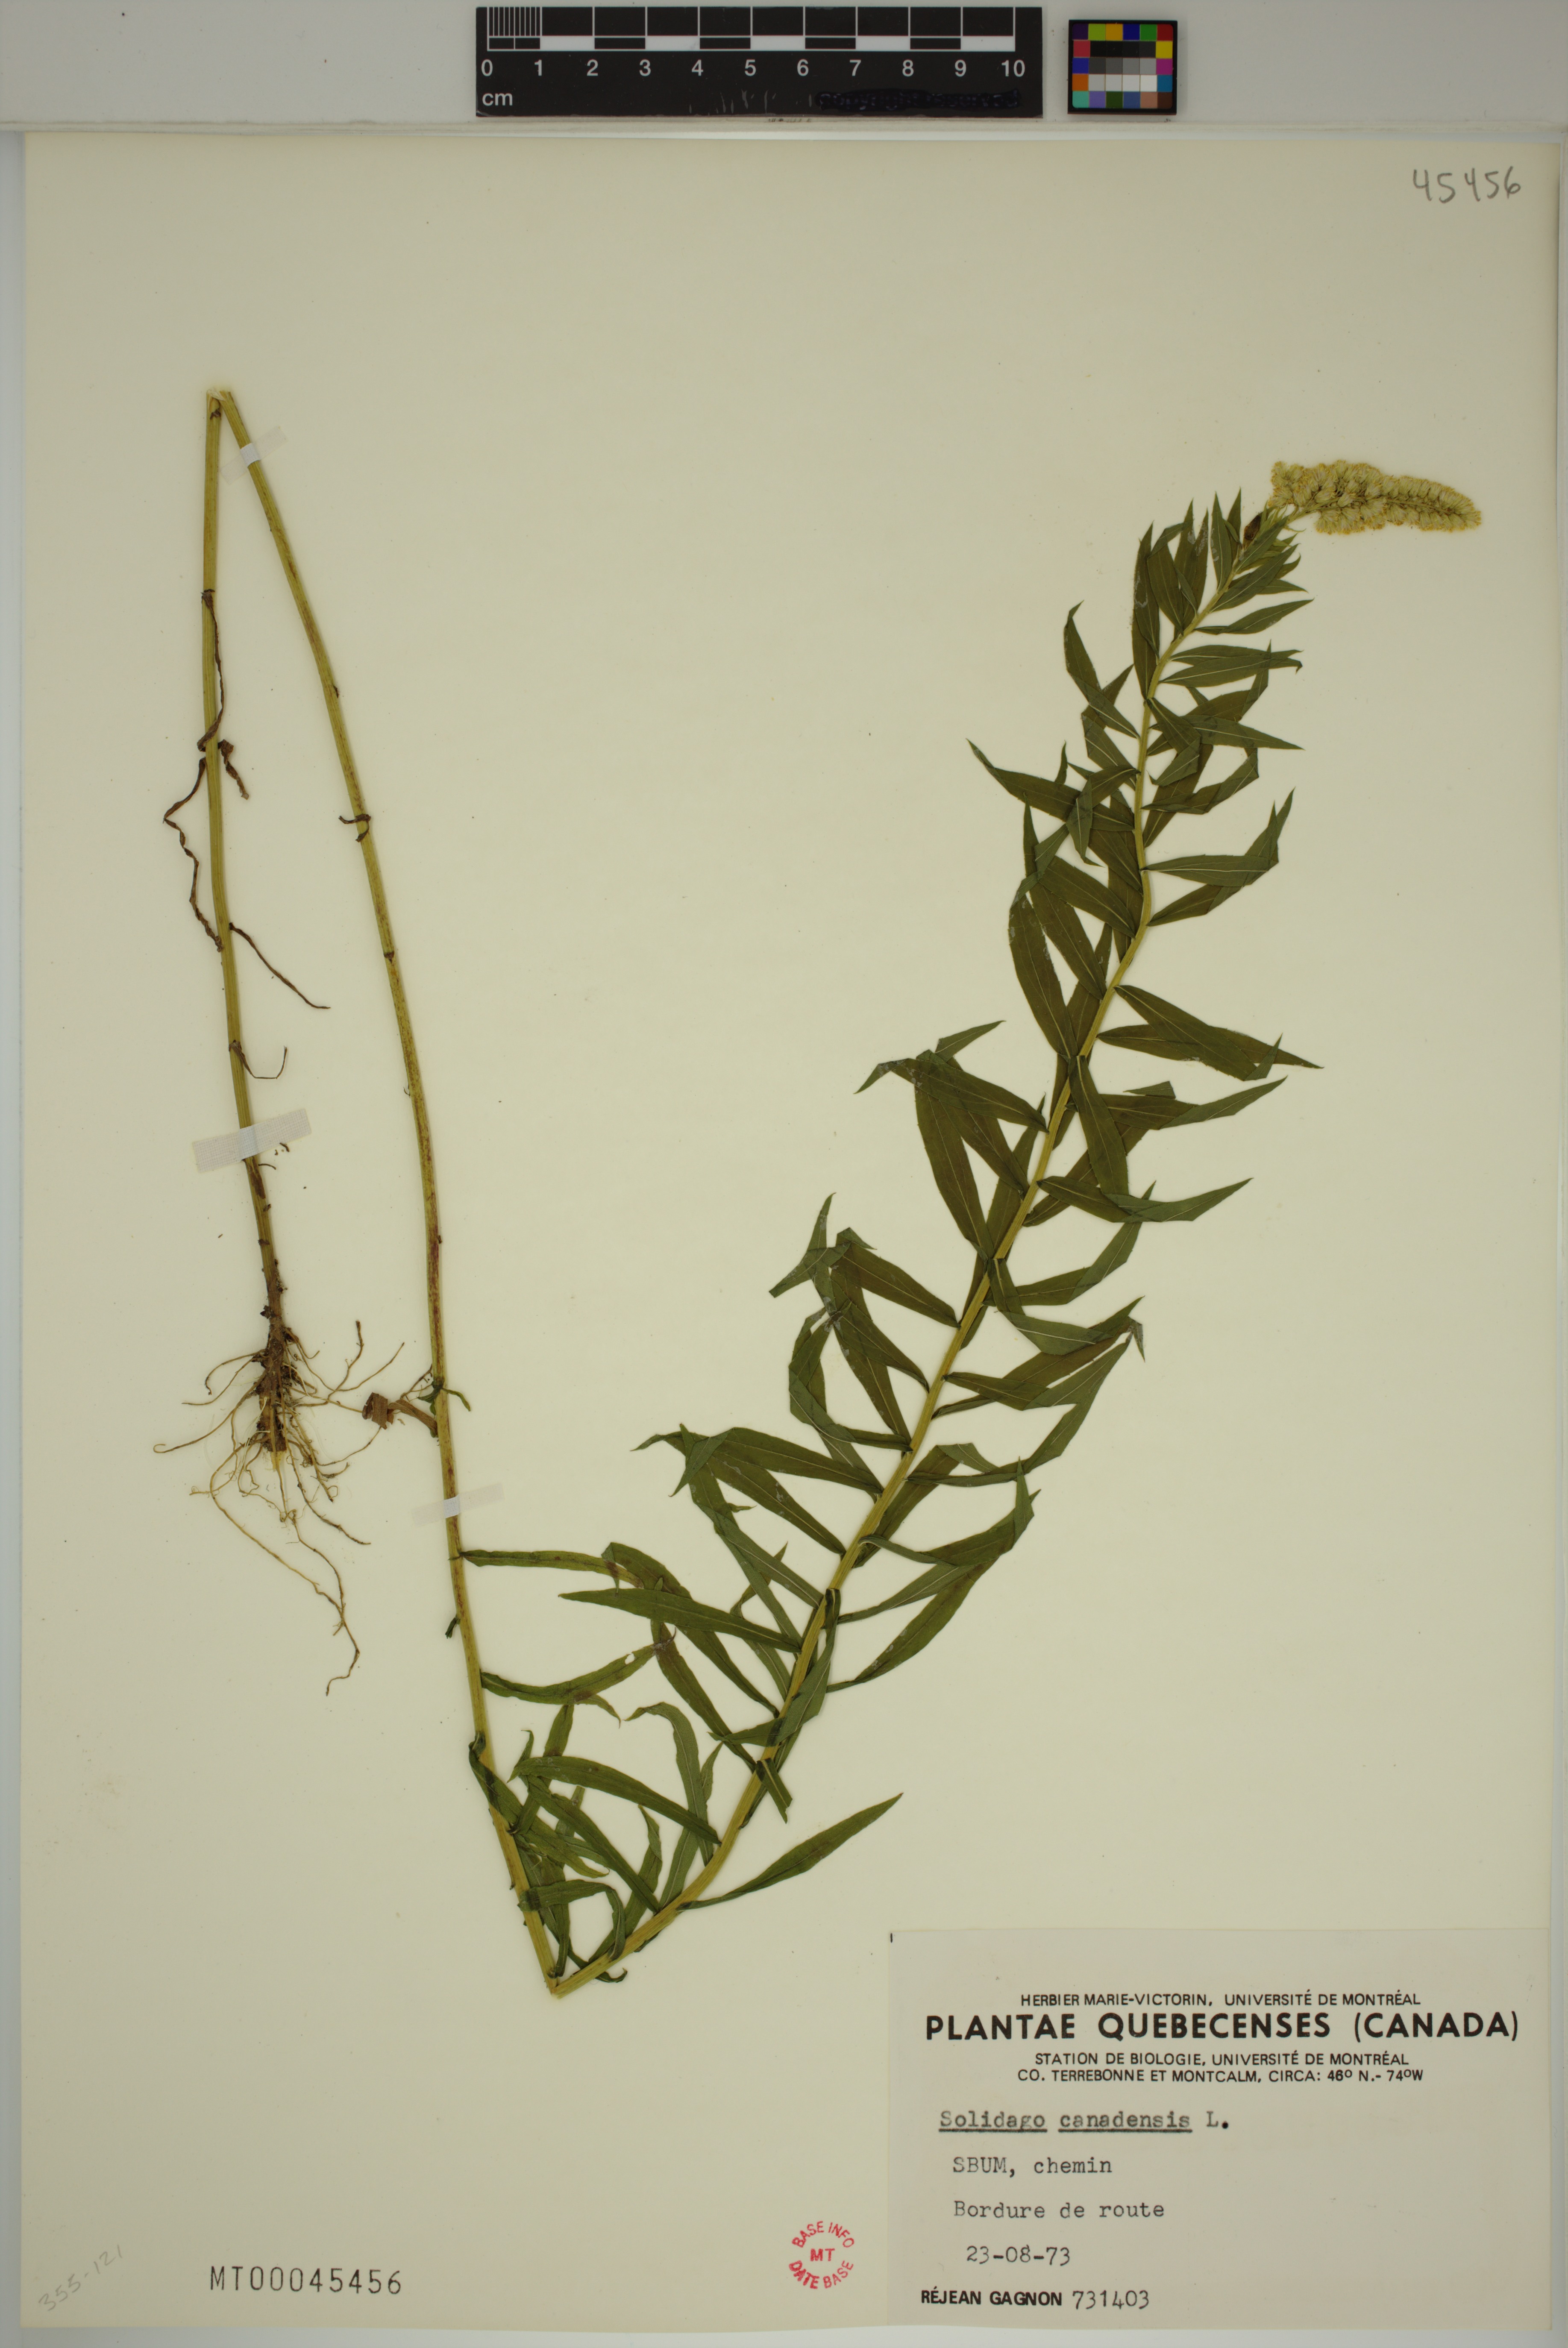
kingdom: Plantae
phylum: Tracheophyta
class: Magnoliopsida
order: Asterales
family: Asteraceae
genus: Solidago
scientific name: Solidago canadensis
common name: Canada goldenrod
